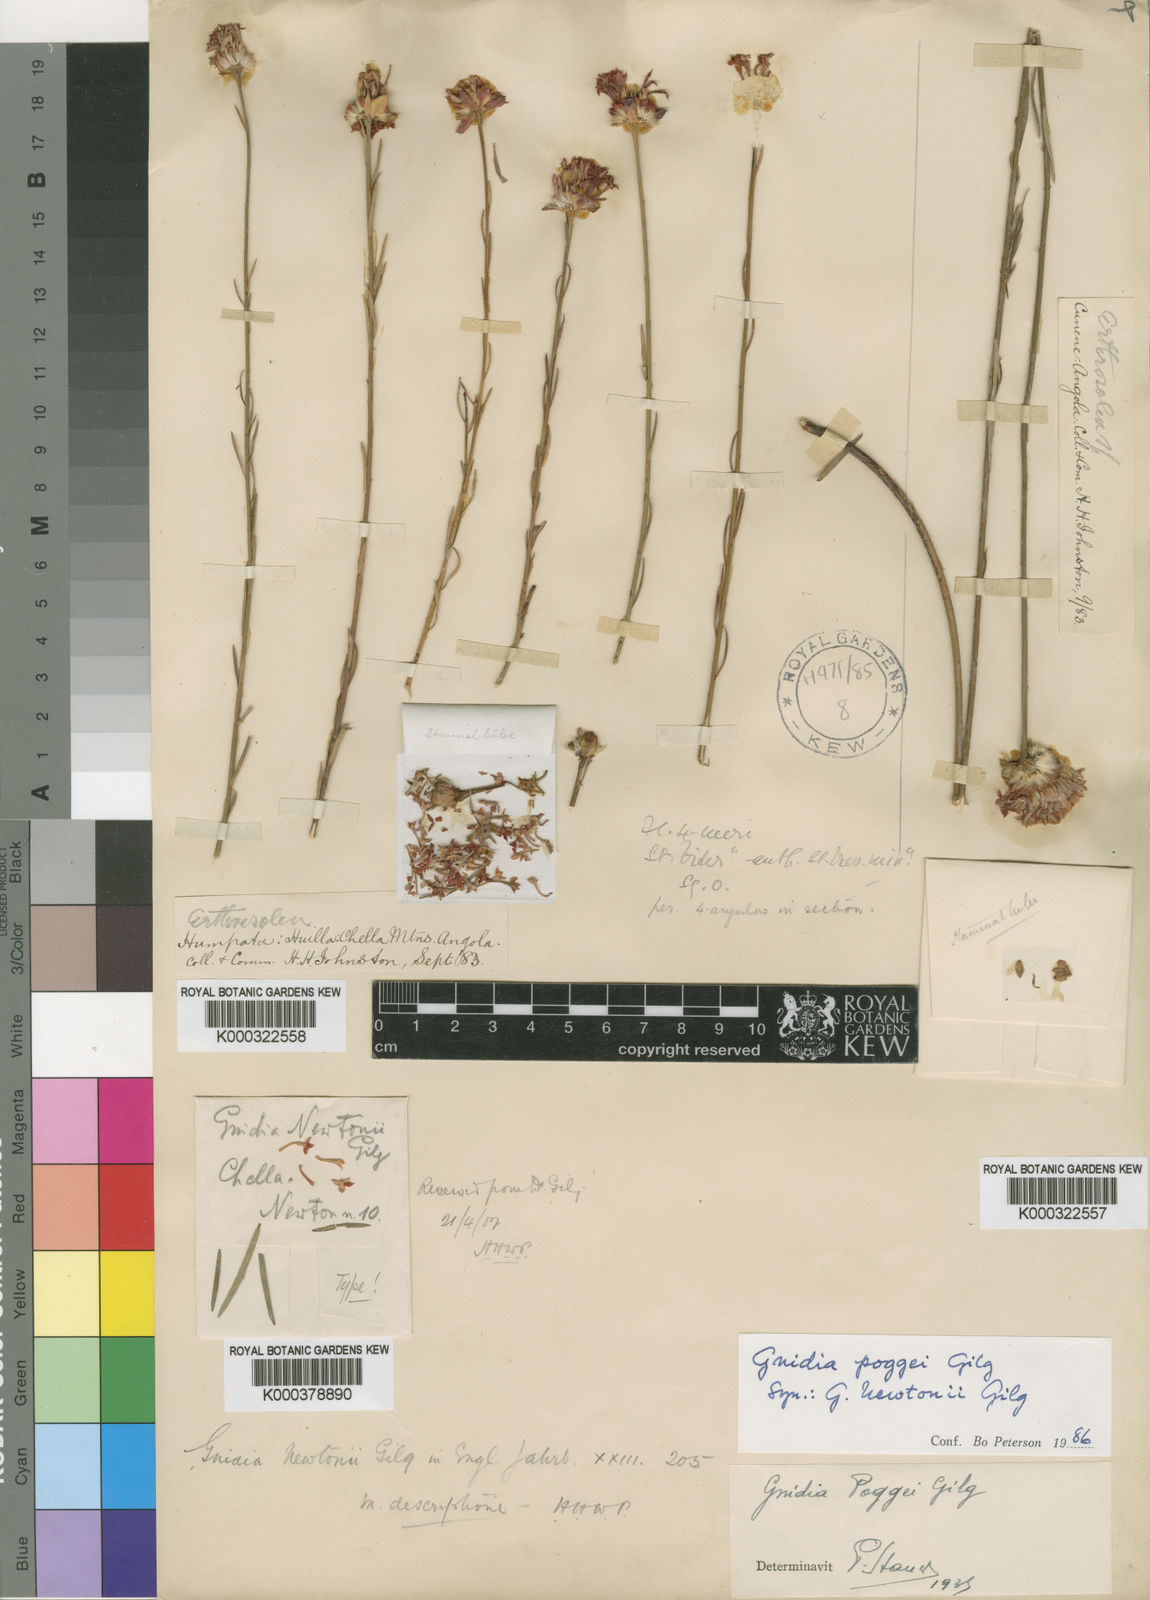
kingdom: Plantae
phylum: Tracheophyta
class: Magnoliopsida
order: Malvales
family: Thymelaeaceae
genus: Gnidia
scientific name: Gnidia poggei
